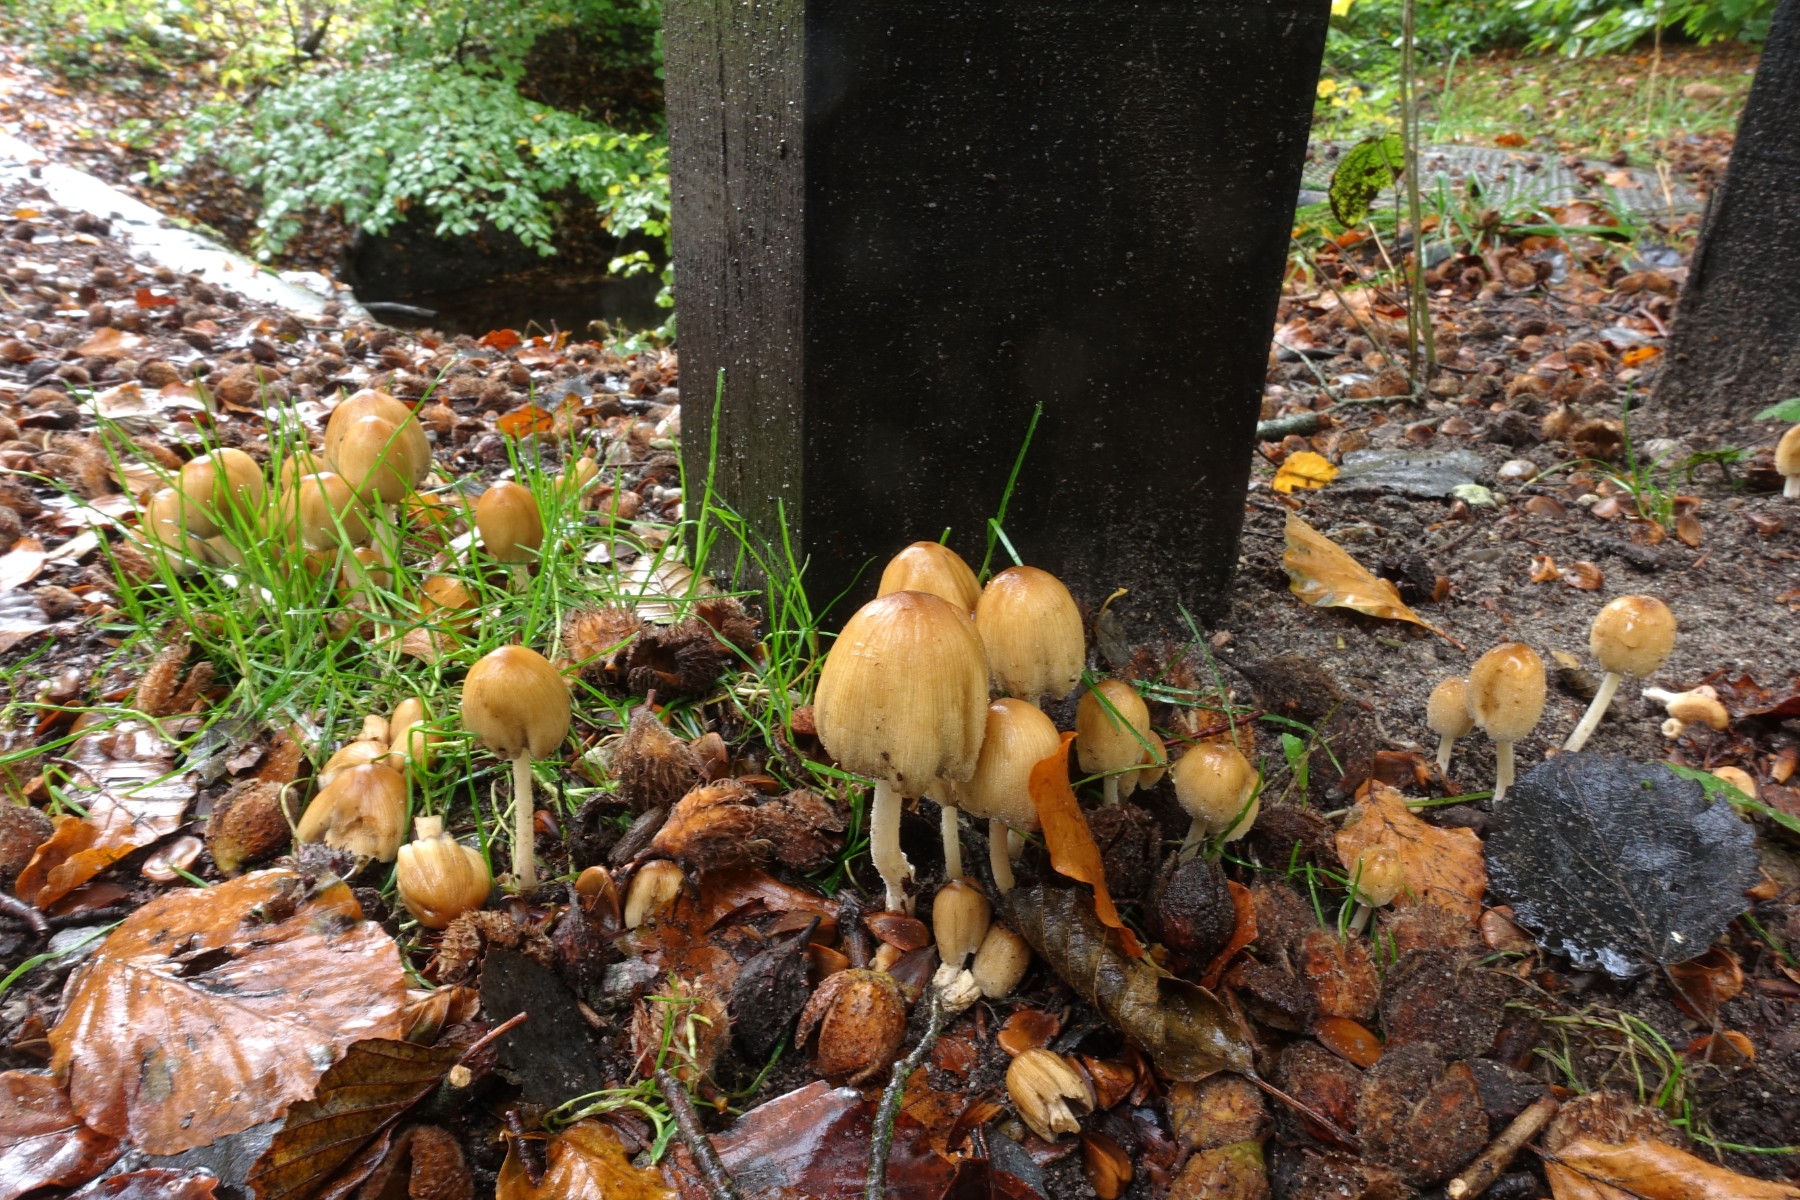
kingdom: Fungi
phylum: Basidiomycota
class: Agaricomycetes
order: Agaricales
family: Psathyrellaceae
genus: Coprinellus
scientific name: Coprinellus deliquescens
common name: rusporet blækhat
